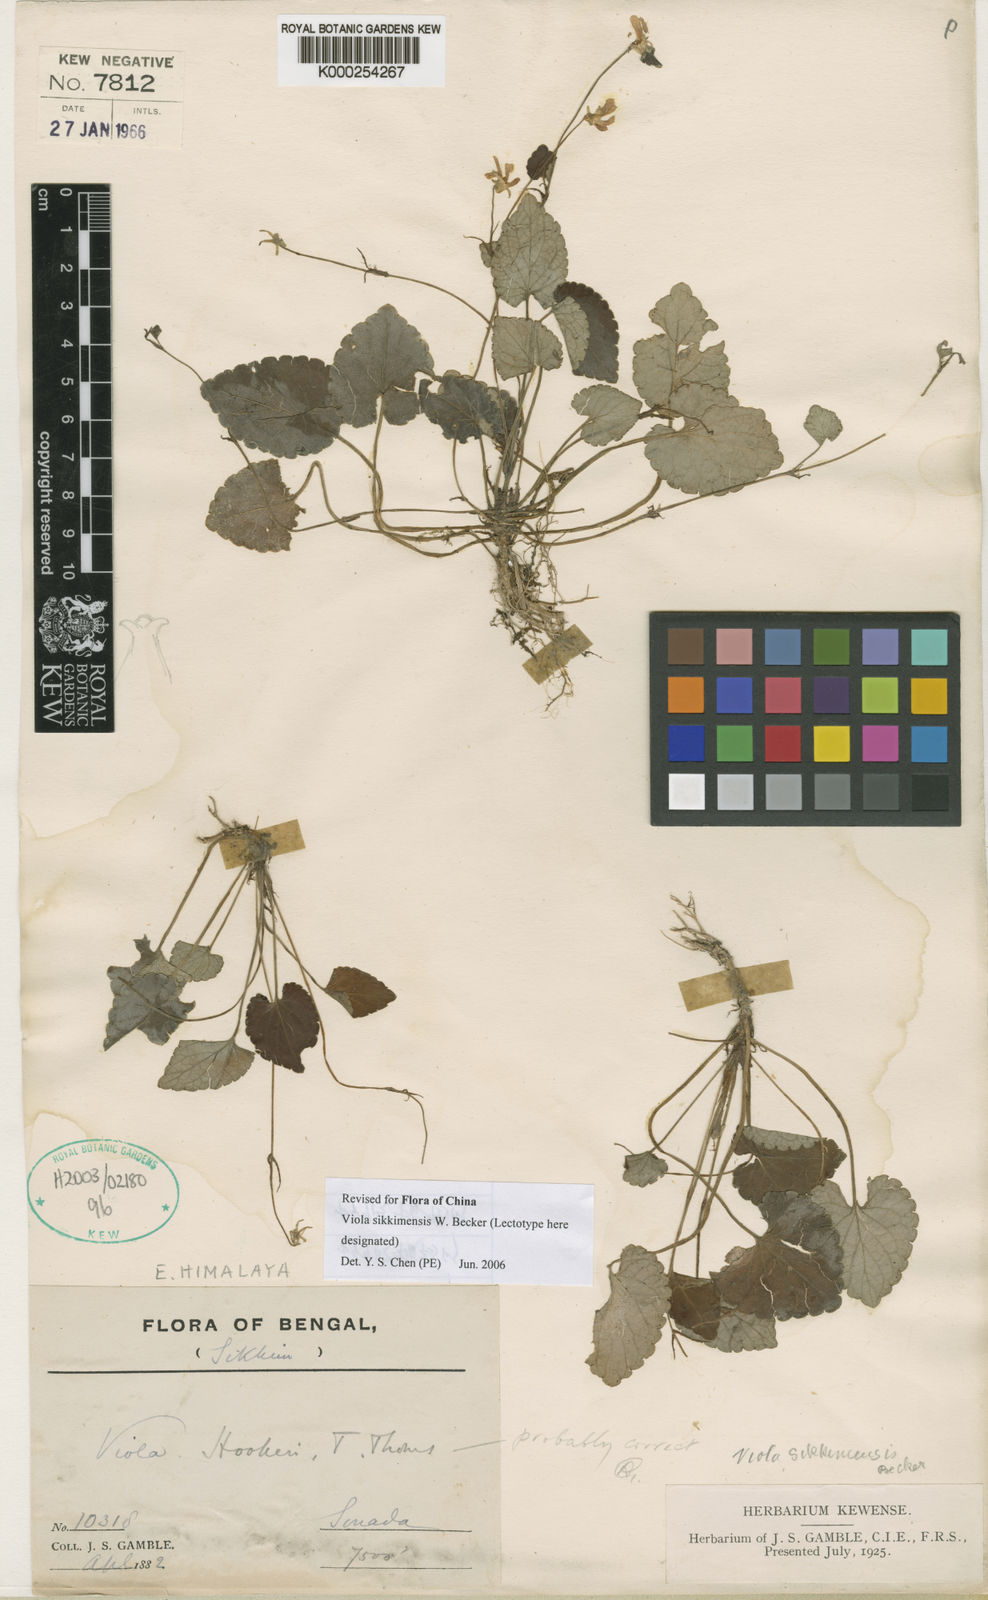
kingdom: Plantae
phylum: Tracheophyta
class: Magnoliopsida
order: Malpighiales
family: Violaceae
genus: Viola
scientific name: Viola sikkimensis
